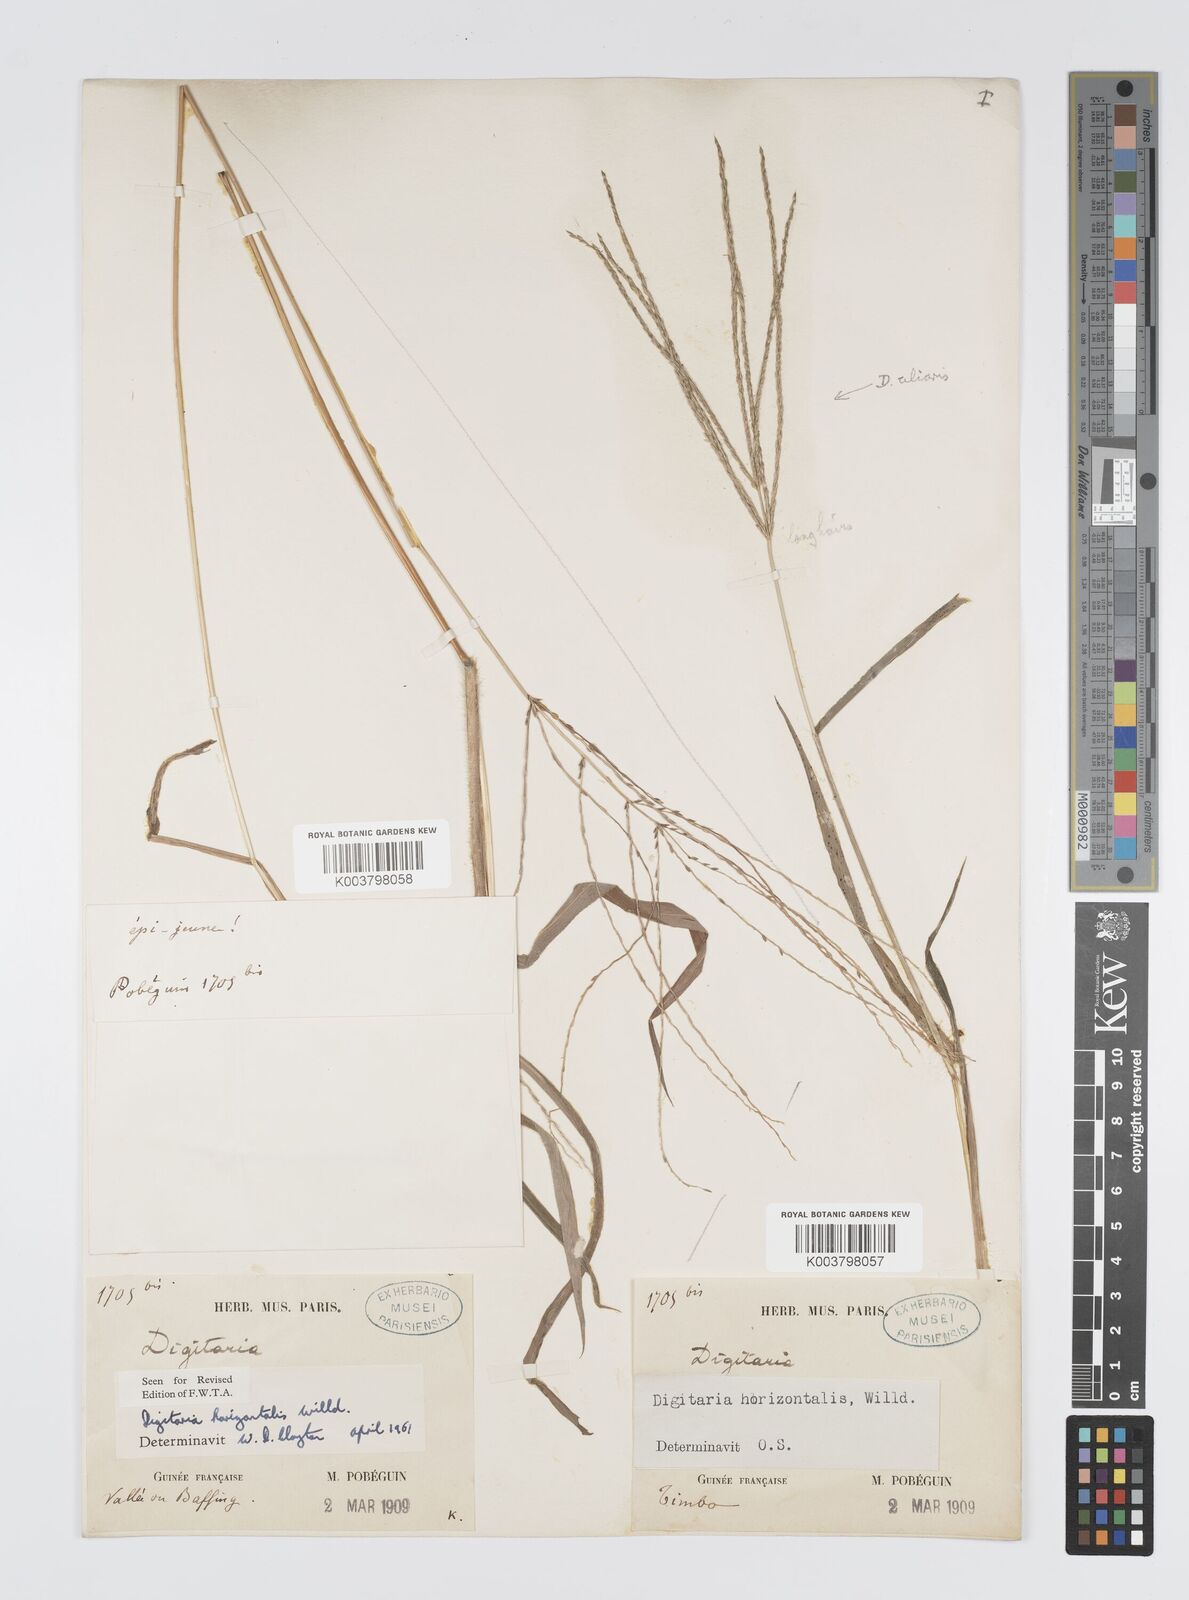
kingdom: Plantae
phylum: Tracheophyta
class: Liliopsida
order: Poales
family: Poaceae
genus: Digitaria
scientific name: Digitaria horizontalis
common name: Jamaican crabgrass
